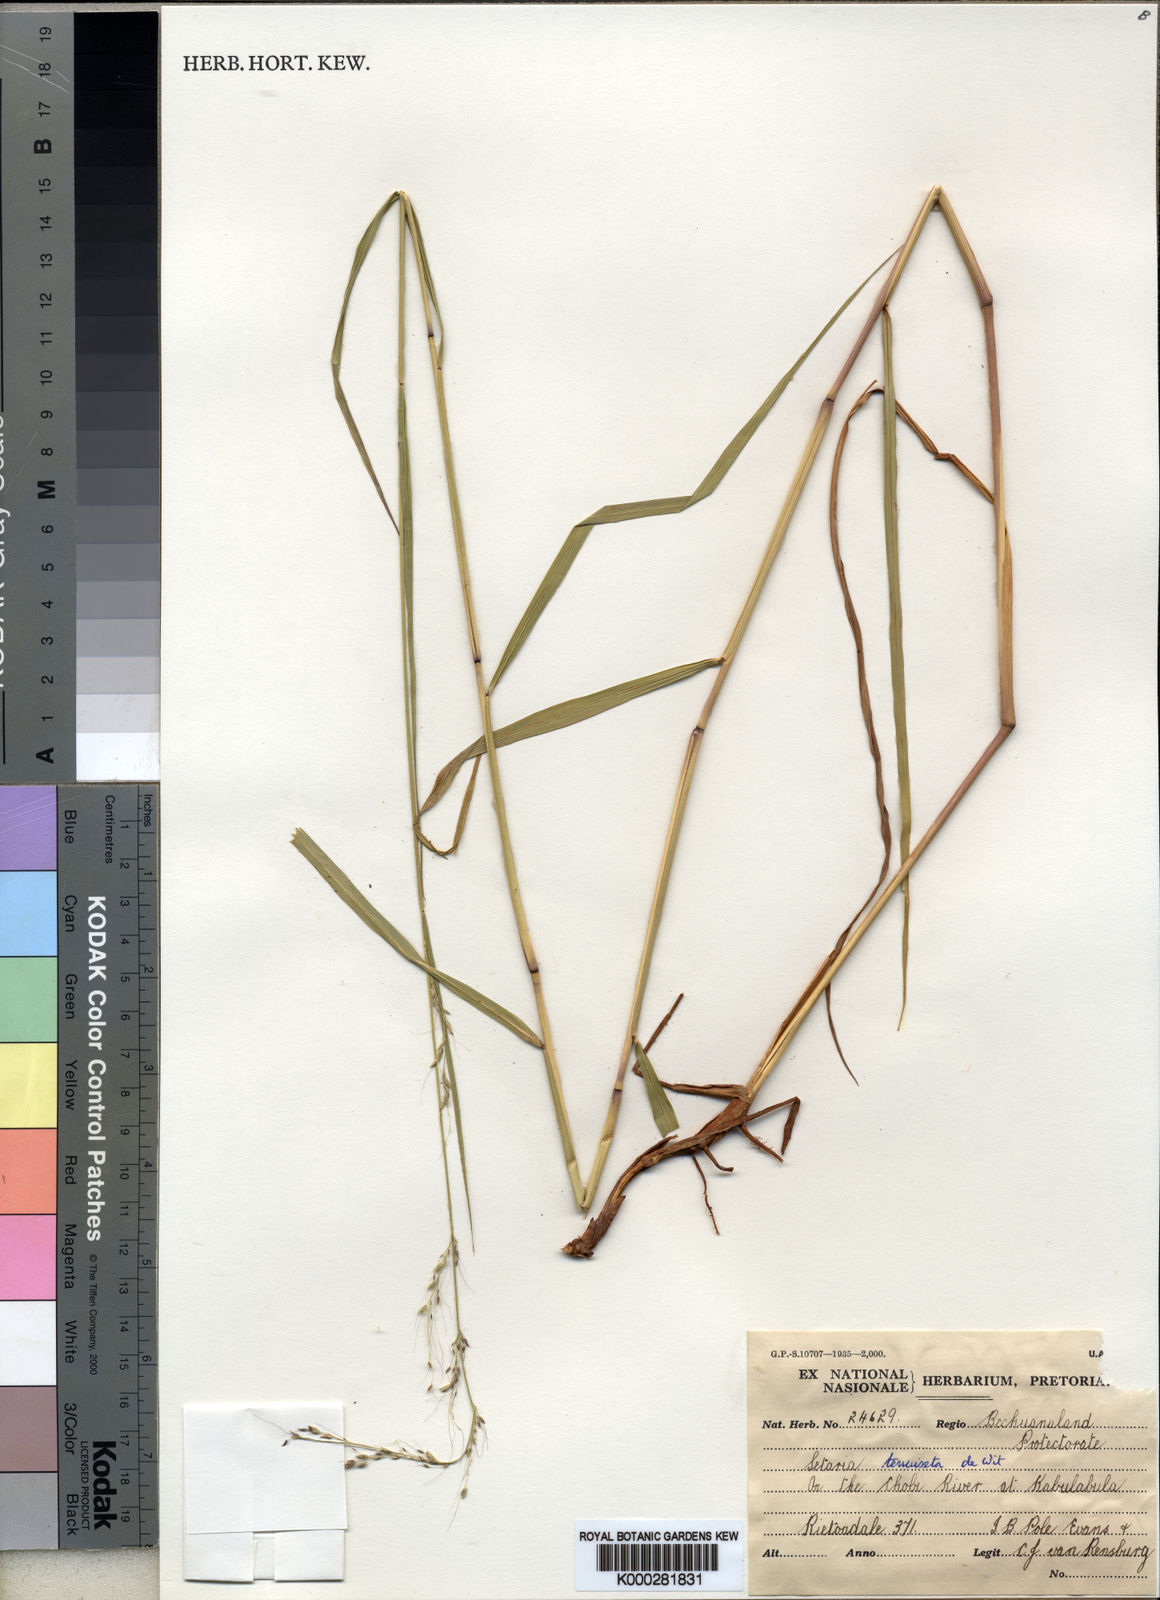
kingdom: Plantae
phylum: Tracheophyta
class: Liliopsida
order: Poales
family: Poaceae
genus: Setaria
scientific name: Setaria pseudaristata
